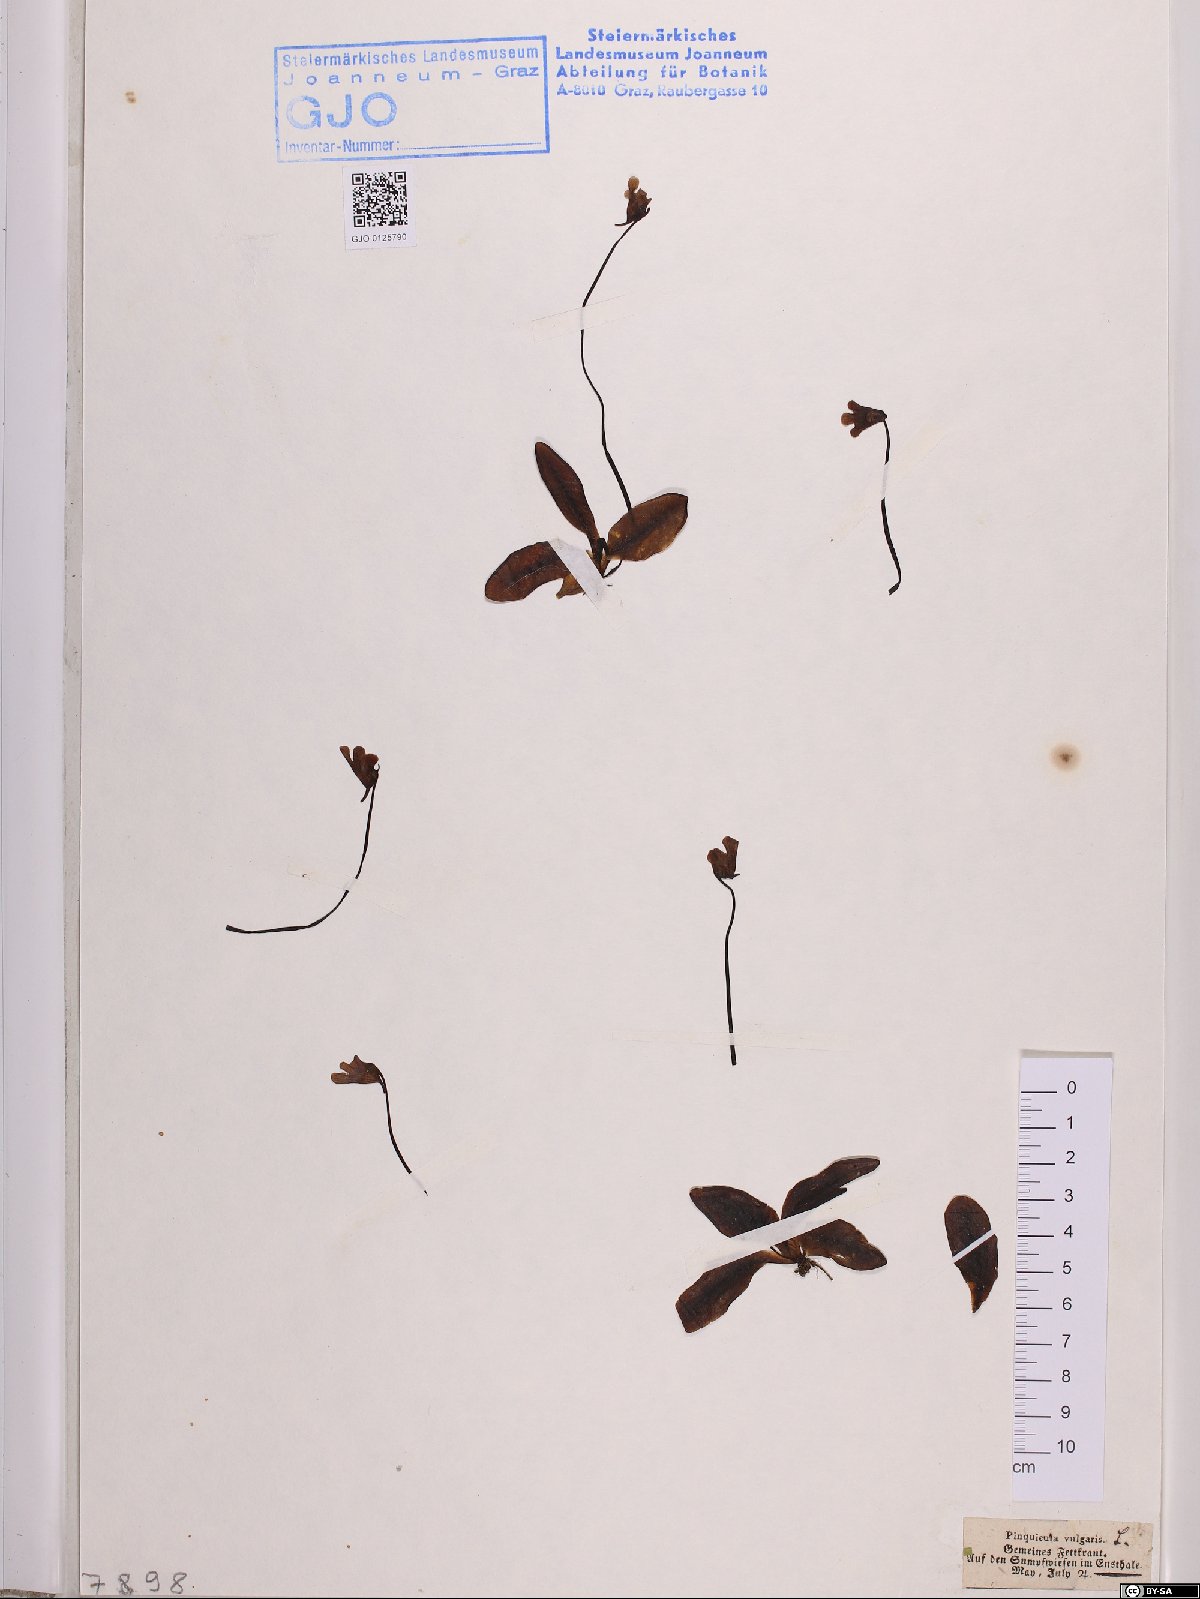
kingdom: Plantae
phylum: Tracheophyta
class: Magnoliopsida
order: Lamiales
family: Lentibulariaceae
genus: Pinguicula
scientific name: Pinguicula vulgaris
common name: Common butterwort
